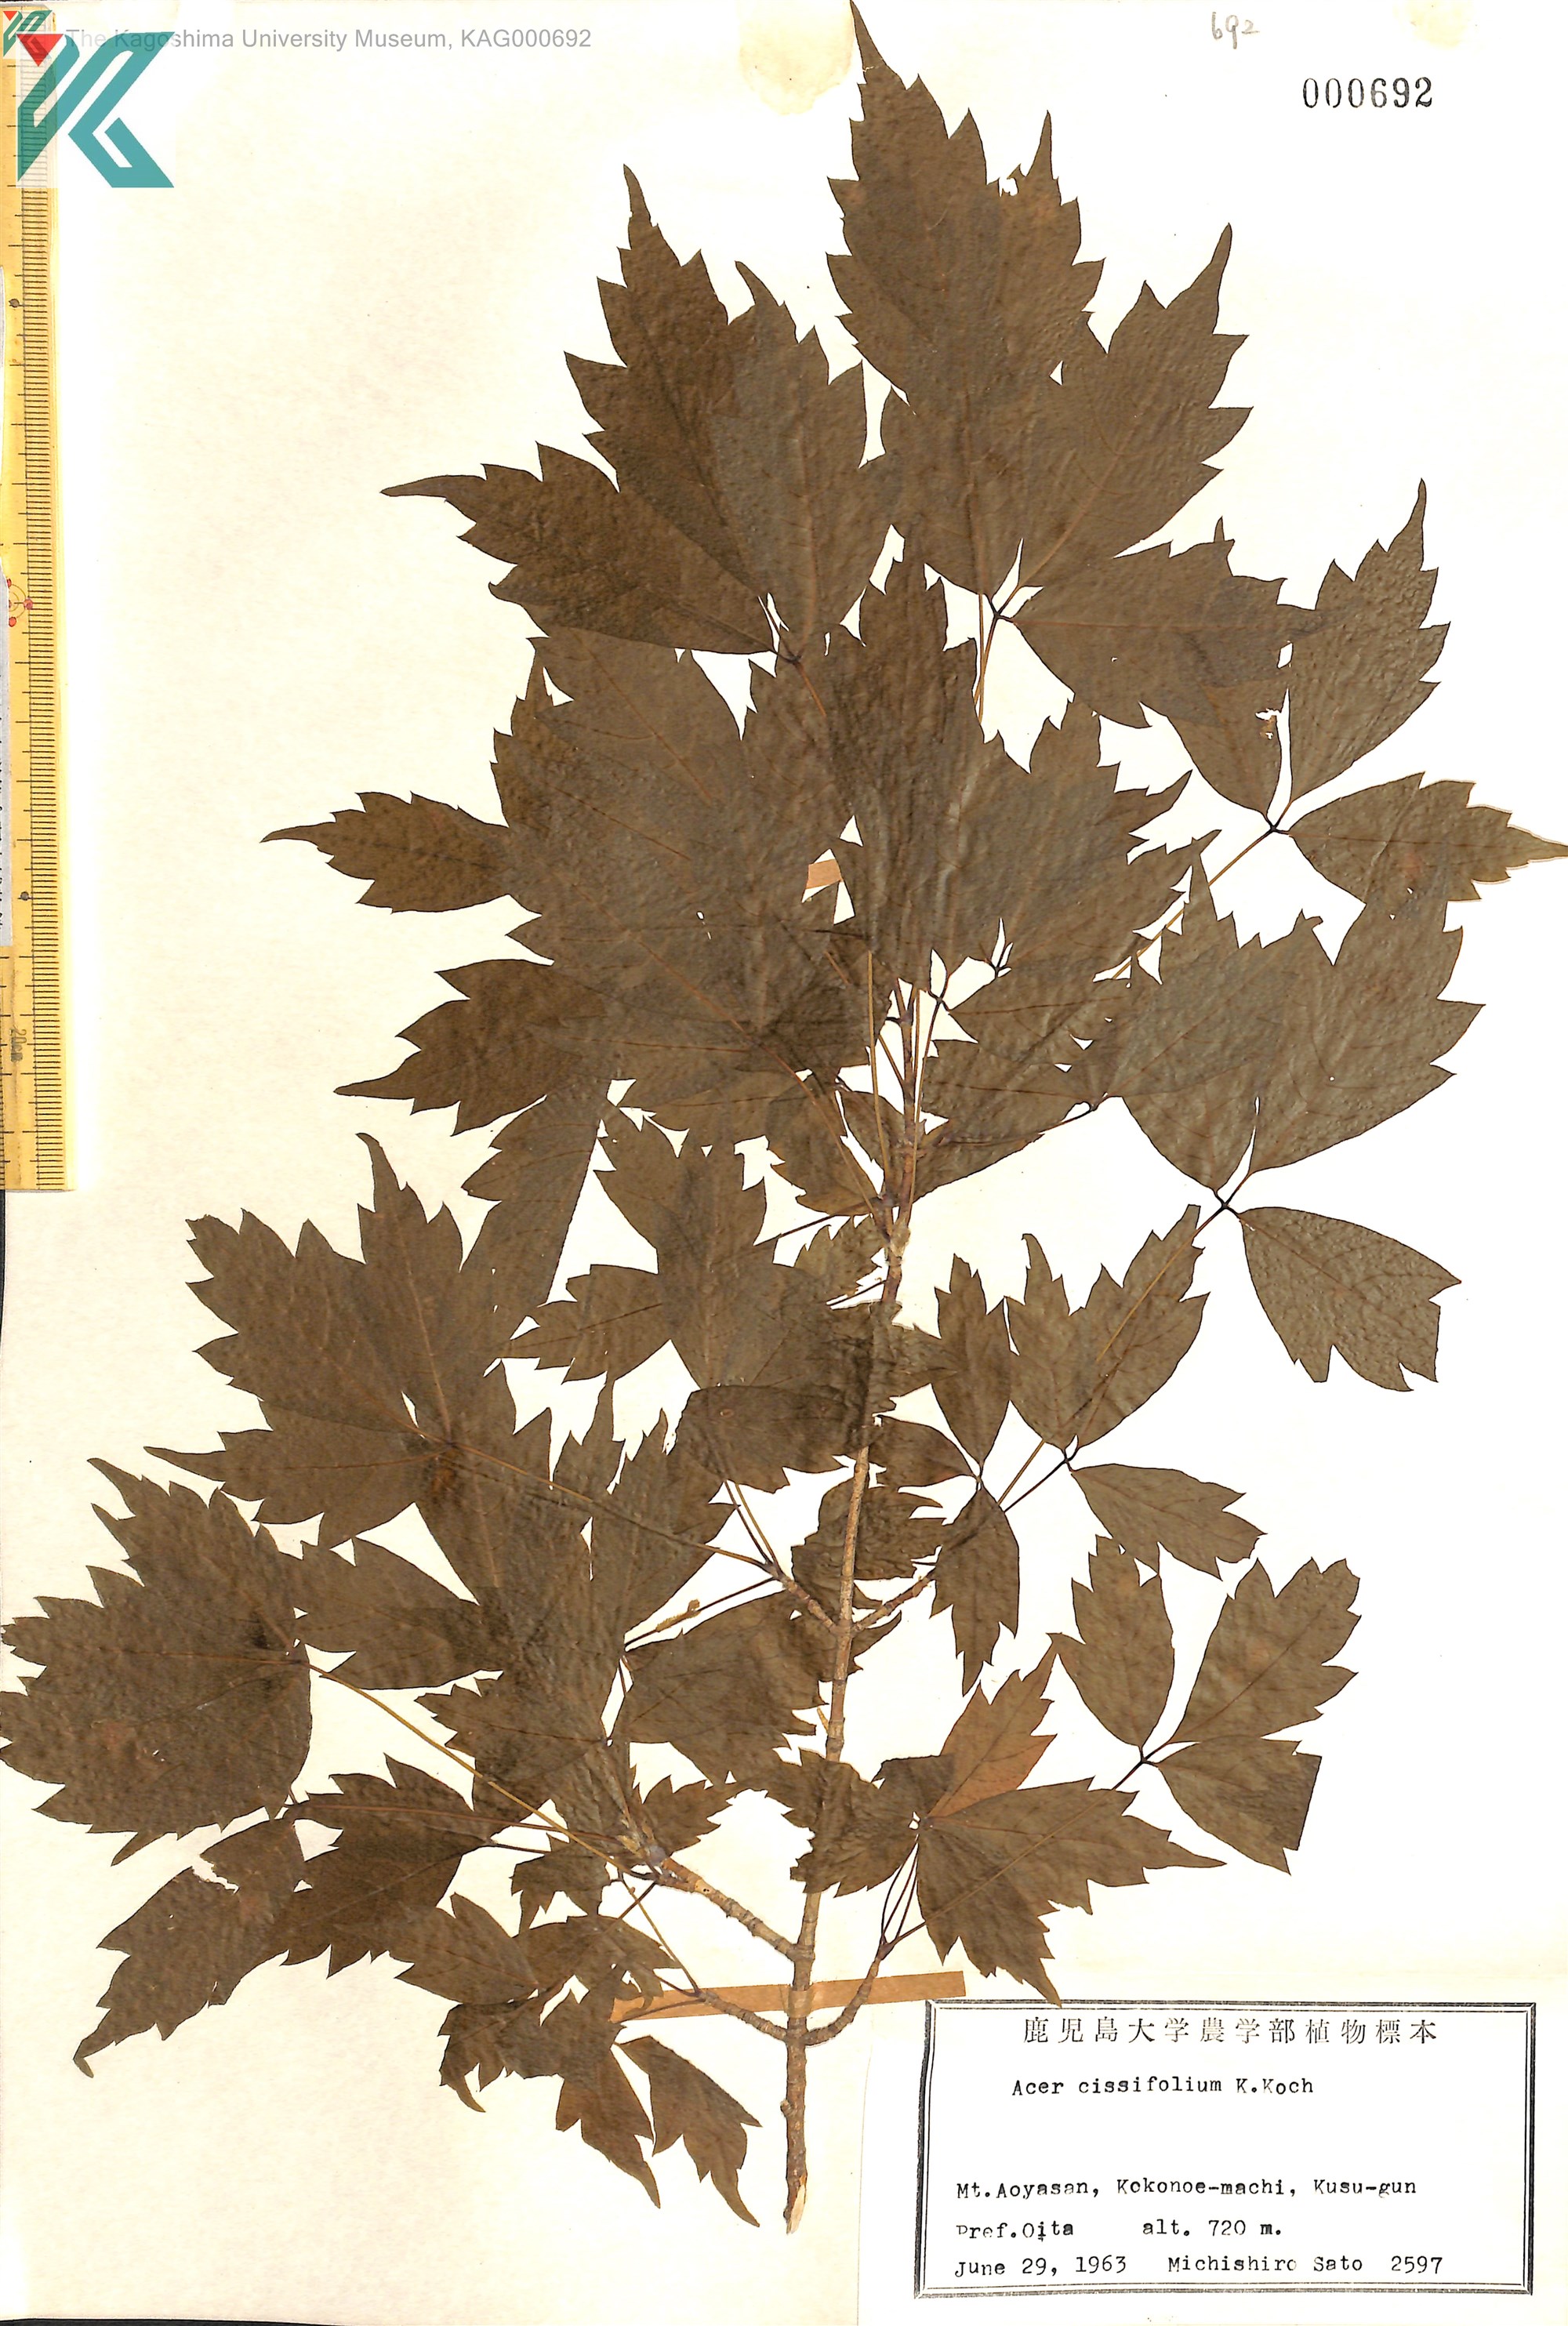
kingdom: Plantae
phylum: Tracheophyta
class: Magnoliopsida
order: Sapindales
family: Sapindaceae
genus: Acer
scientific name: Acer cissifolium
